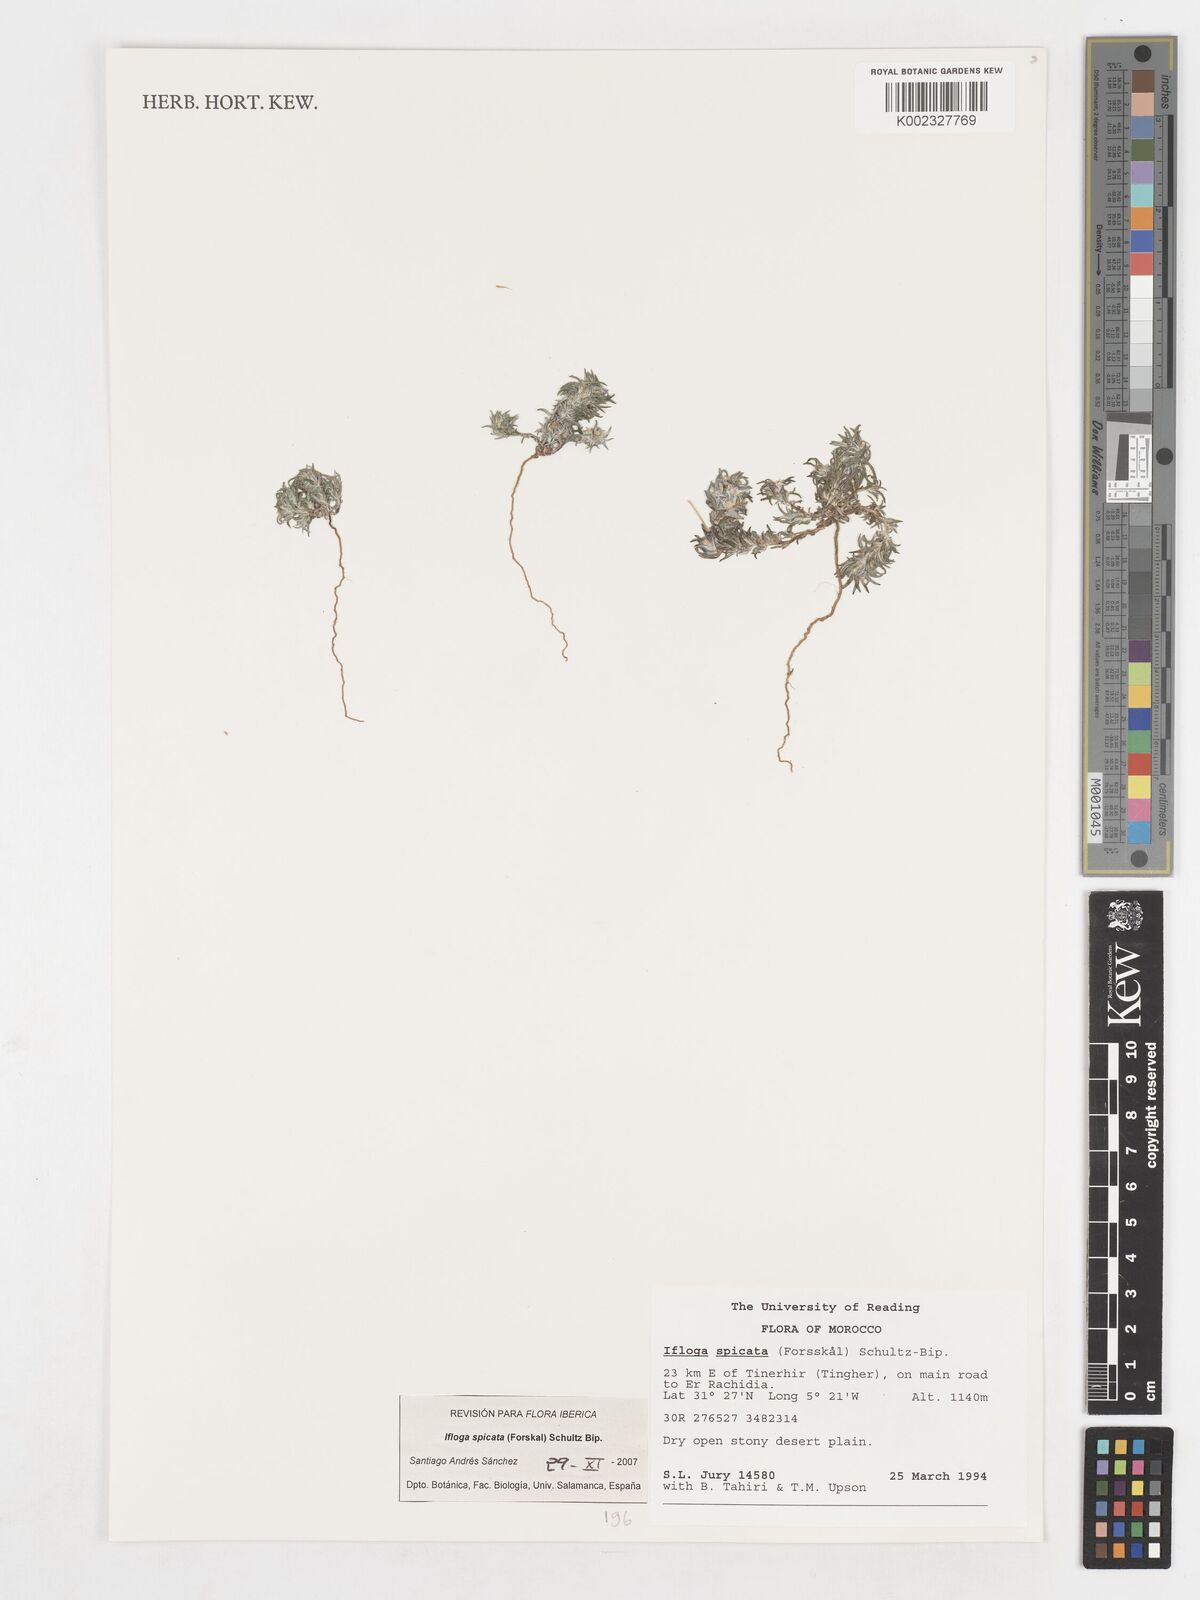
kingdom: Plantae
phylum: Tracheophyta
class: Magnoliopsida
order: Asterales
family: Asteraceae
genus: Ifloga
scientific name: Ifloga spicata
